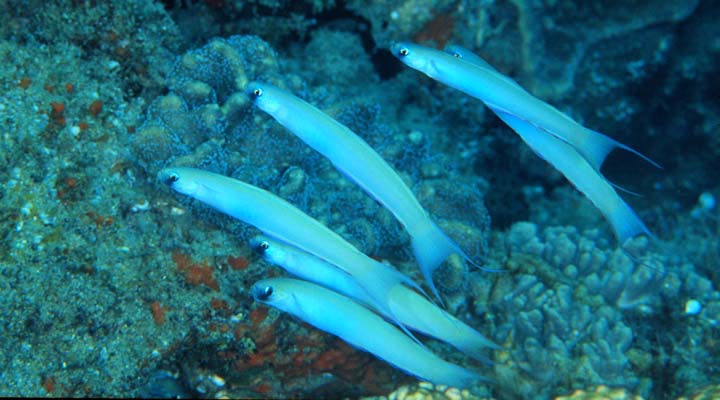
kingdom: Animalia
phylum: Chordata
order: Perciformes
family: Microdesmidae
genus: Ptereleotris
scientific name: Ptereleotris monoptera
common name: Lyre-tail dart-goby
